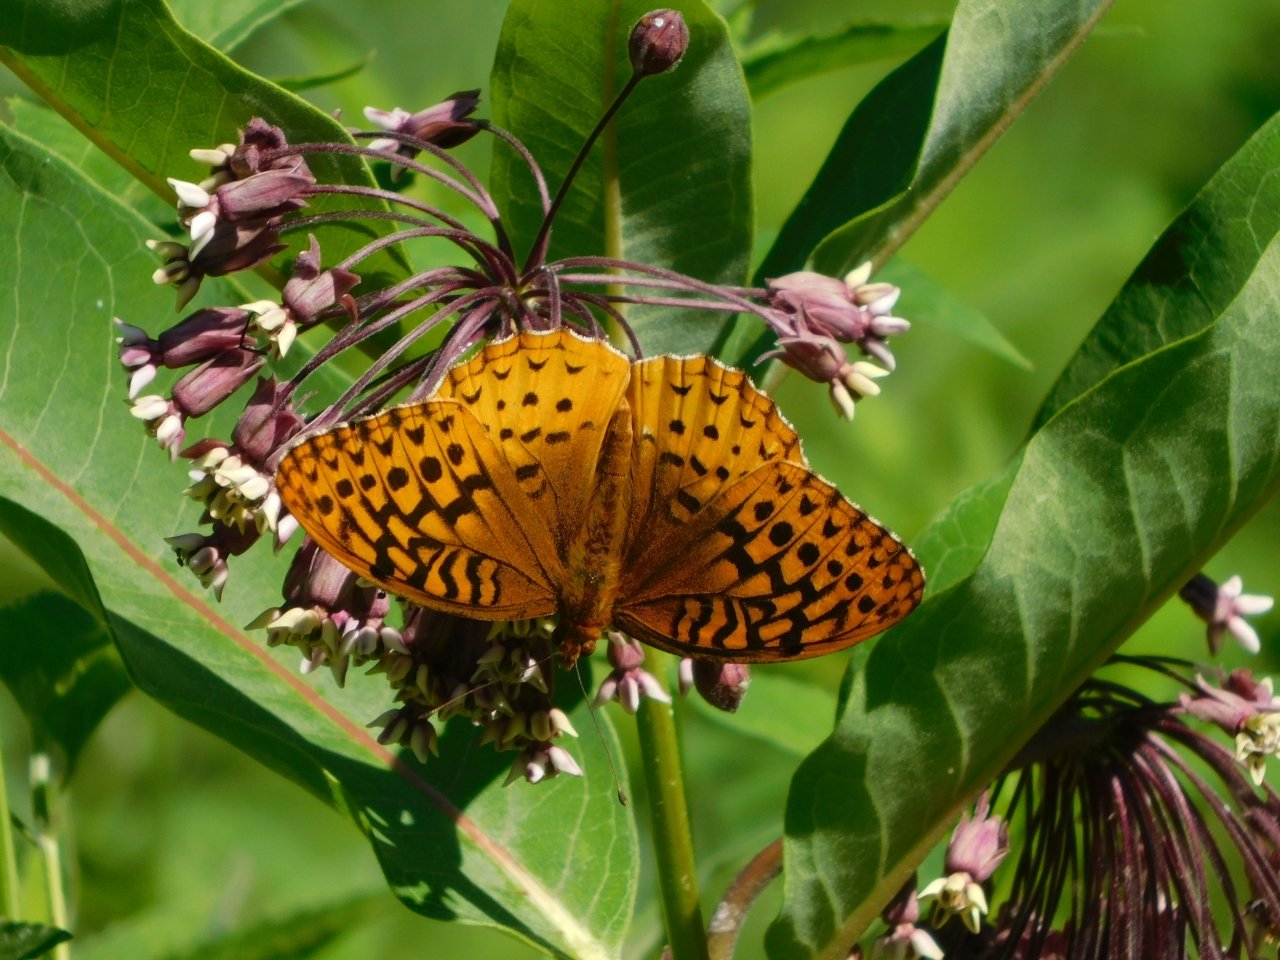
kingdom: Animalia
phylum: Arthropoda
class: Insecta
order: Lepidoptera
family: Nymphalidae
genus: Speyeria
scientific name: Speyeria cybele
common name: Great Spangled Fritillary
